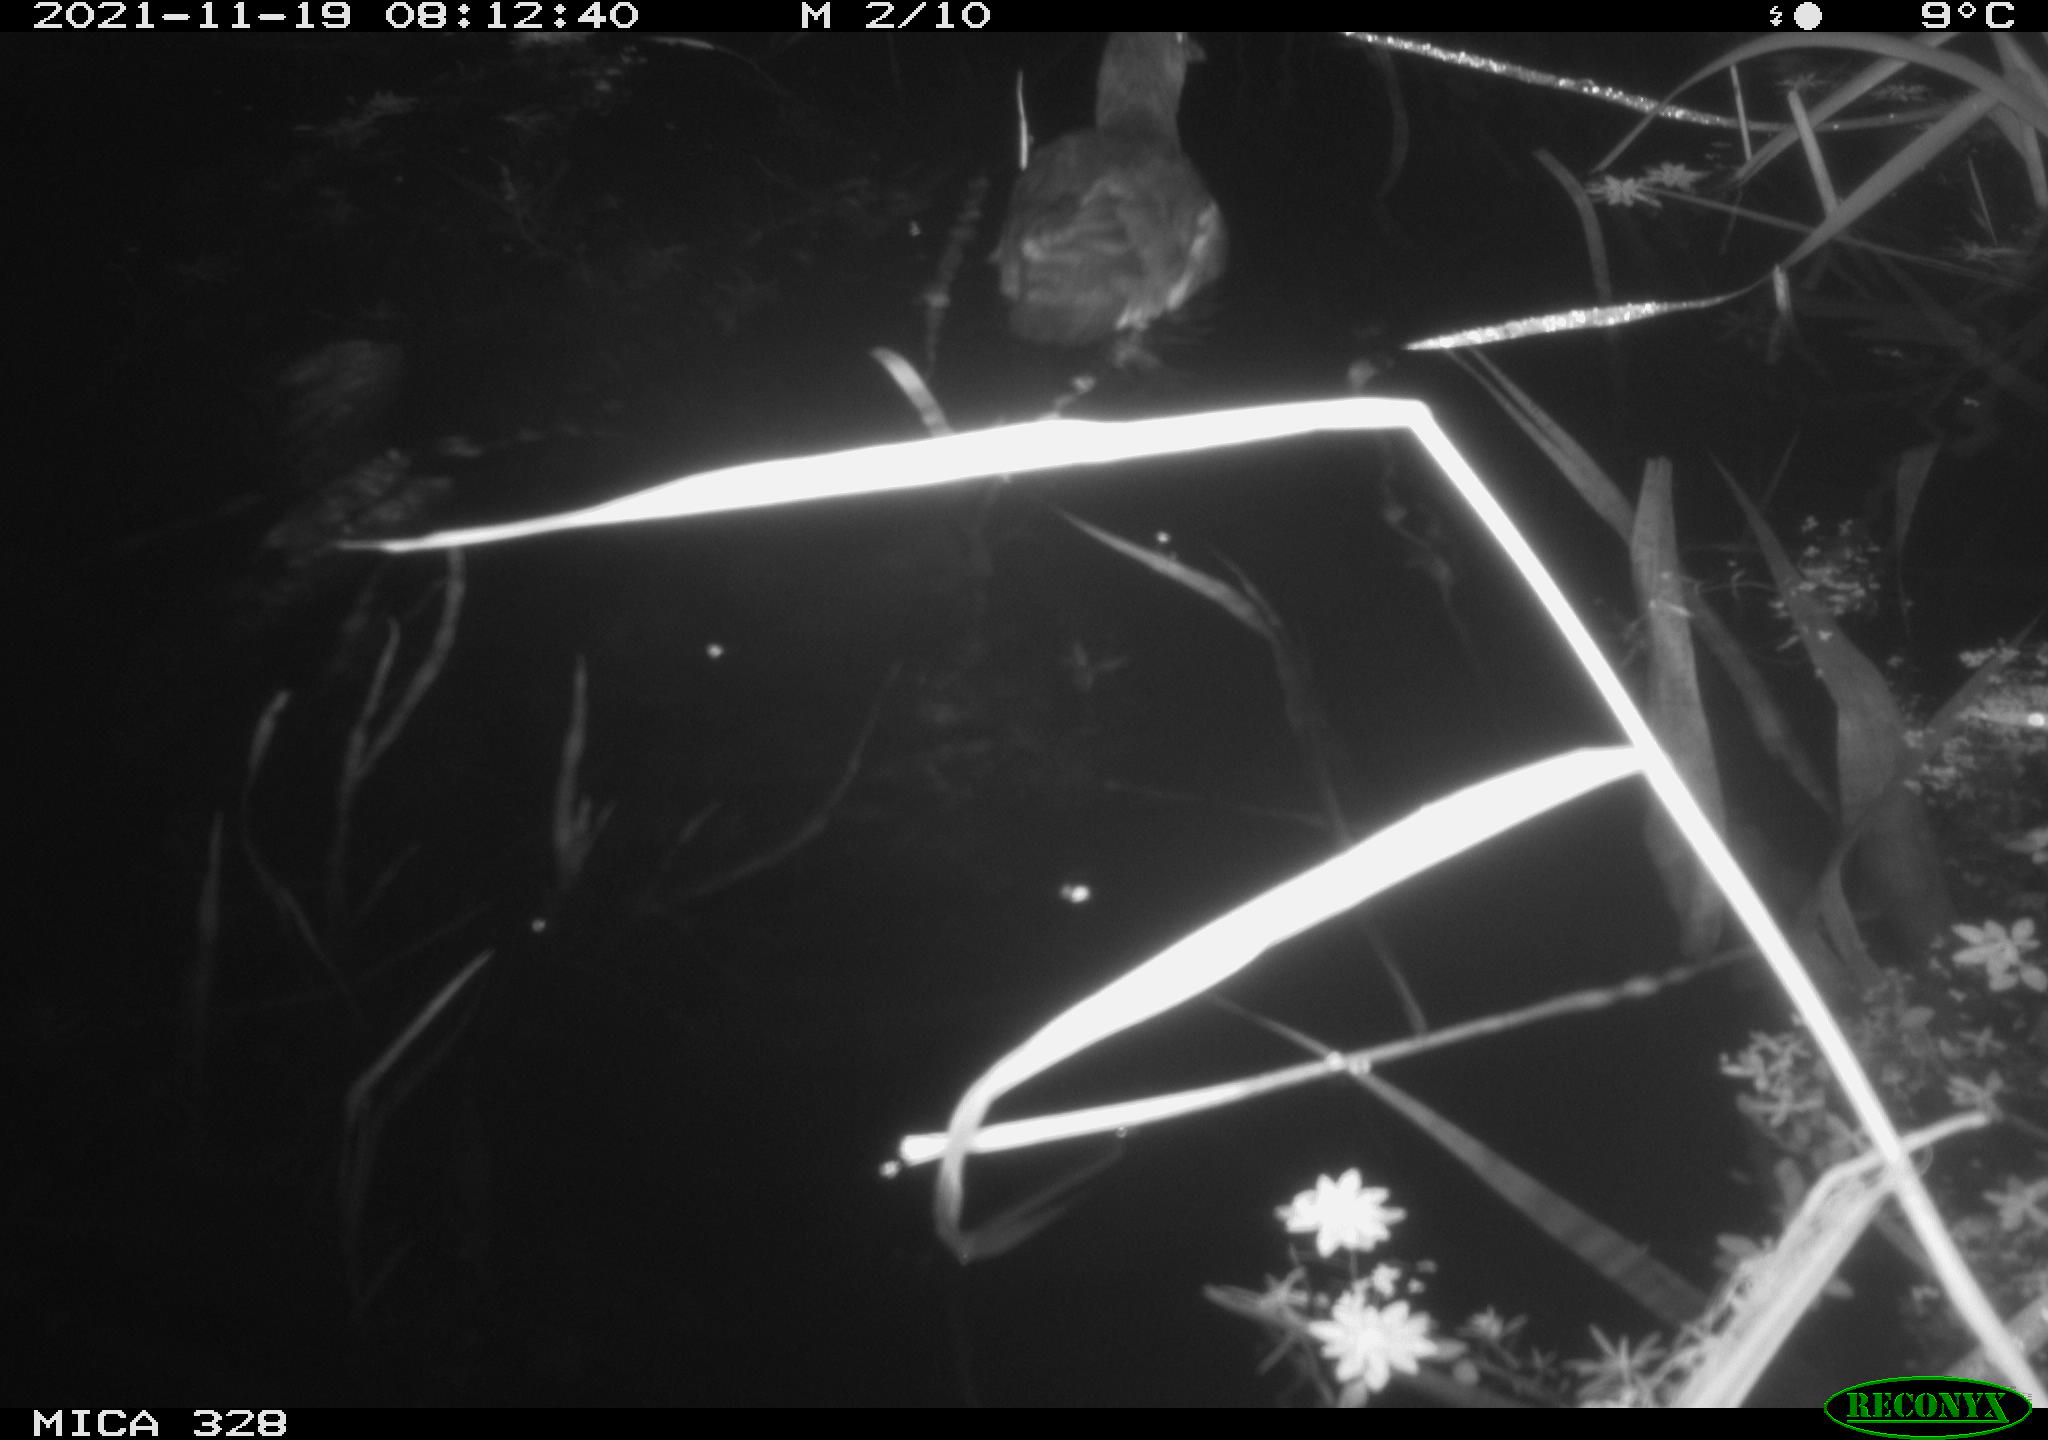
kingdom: Animalia
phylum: Chordata
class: Aves
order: Gruiformes
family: Rallidae
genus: Gallinula
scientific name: Gallinula chloropus
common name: Common moorhen
